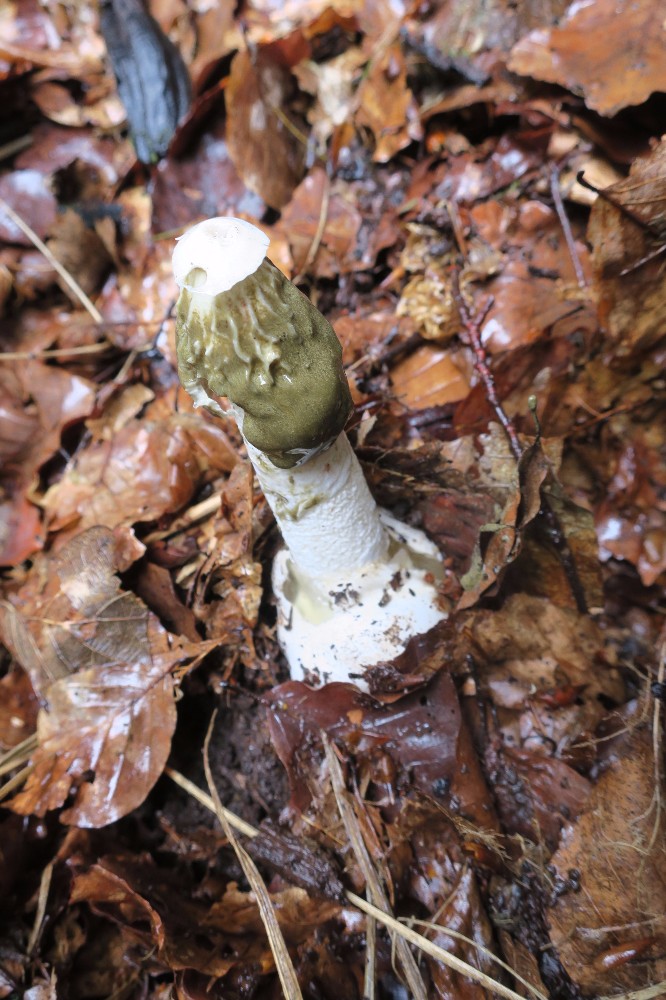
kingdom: Fungi
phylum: Basidiomycota
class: Agaricomycetes
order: Phallales
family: Phallaceae
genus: Phallus
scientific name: Phallus impudicus
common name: almindelig stinksvamp
